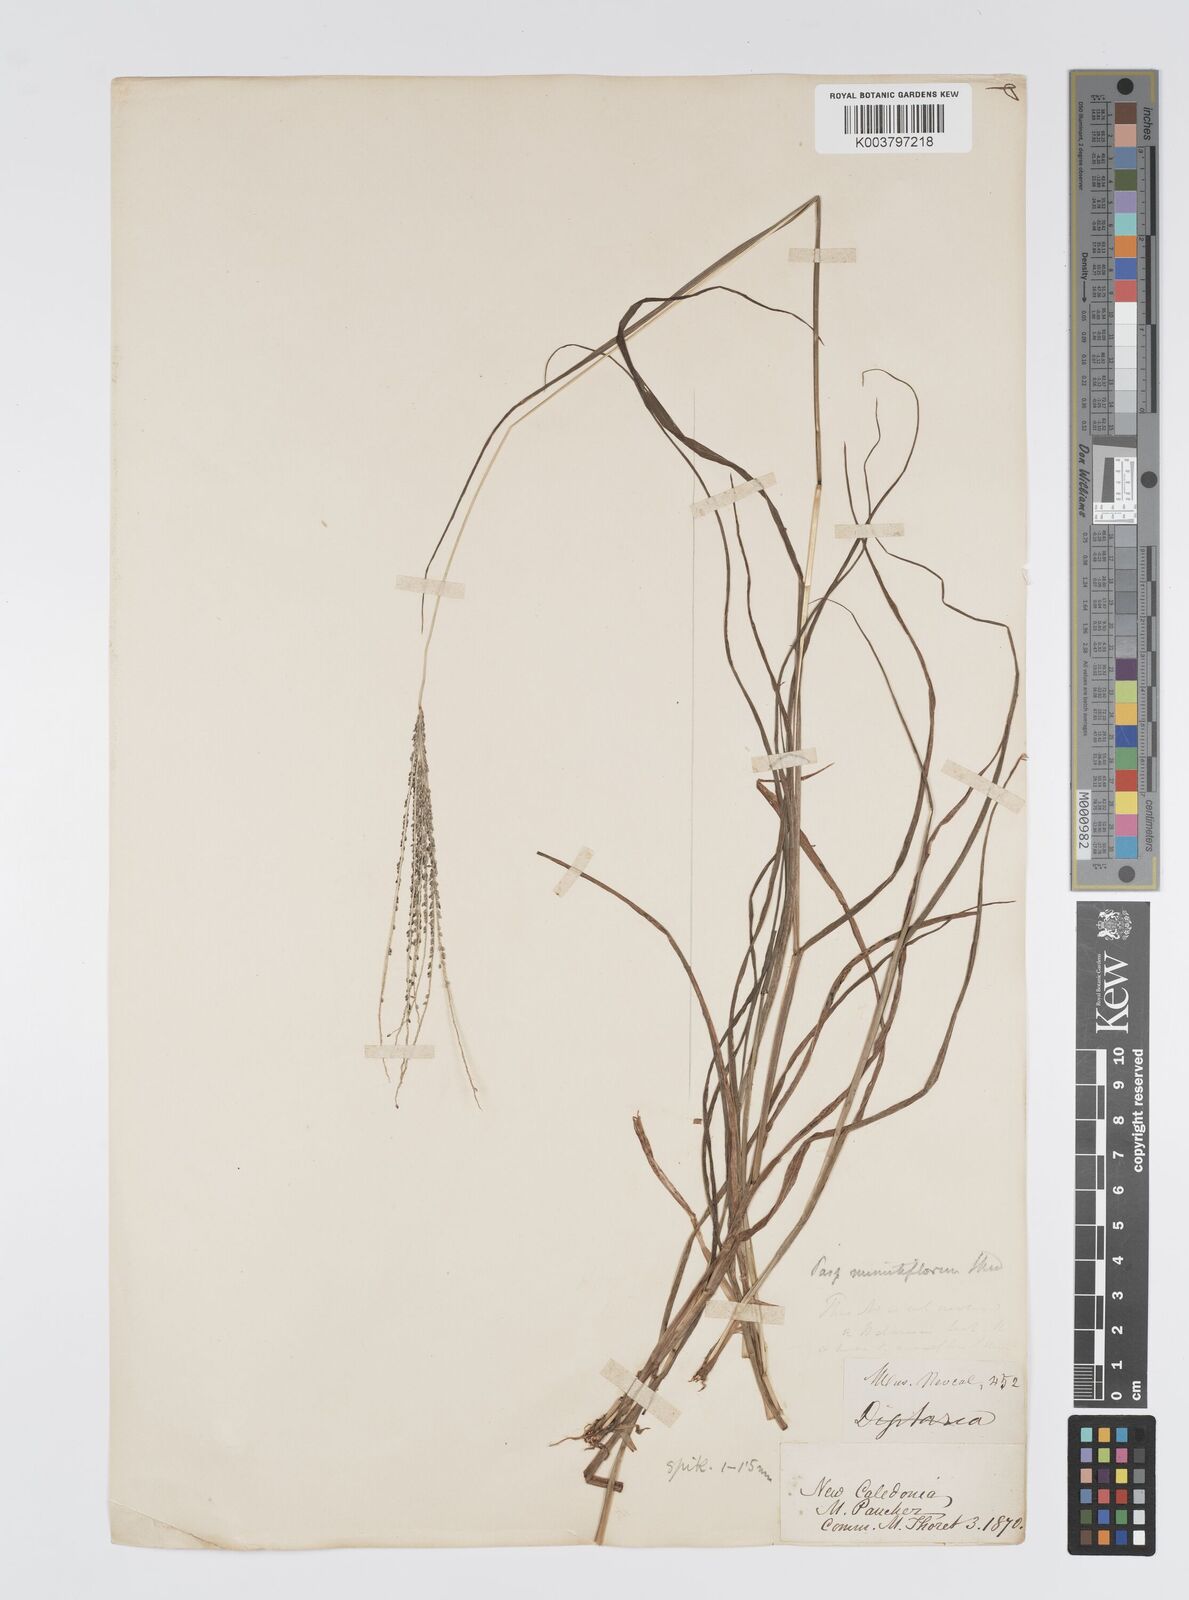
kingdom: Plantae
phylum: Tracheophyta
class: Liliopsida
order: Poales
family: Poaceae
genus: Digitaria
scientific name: Digitaria caledonica
